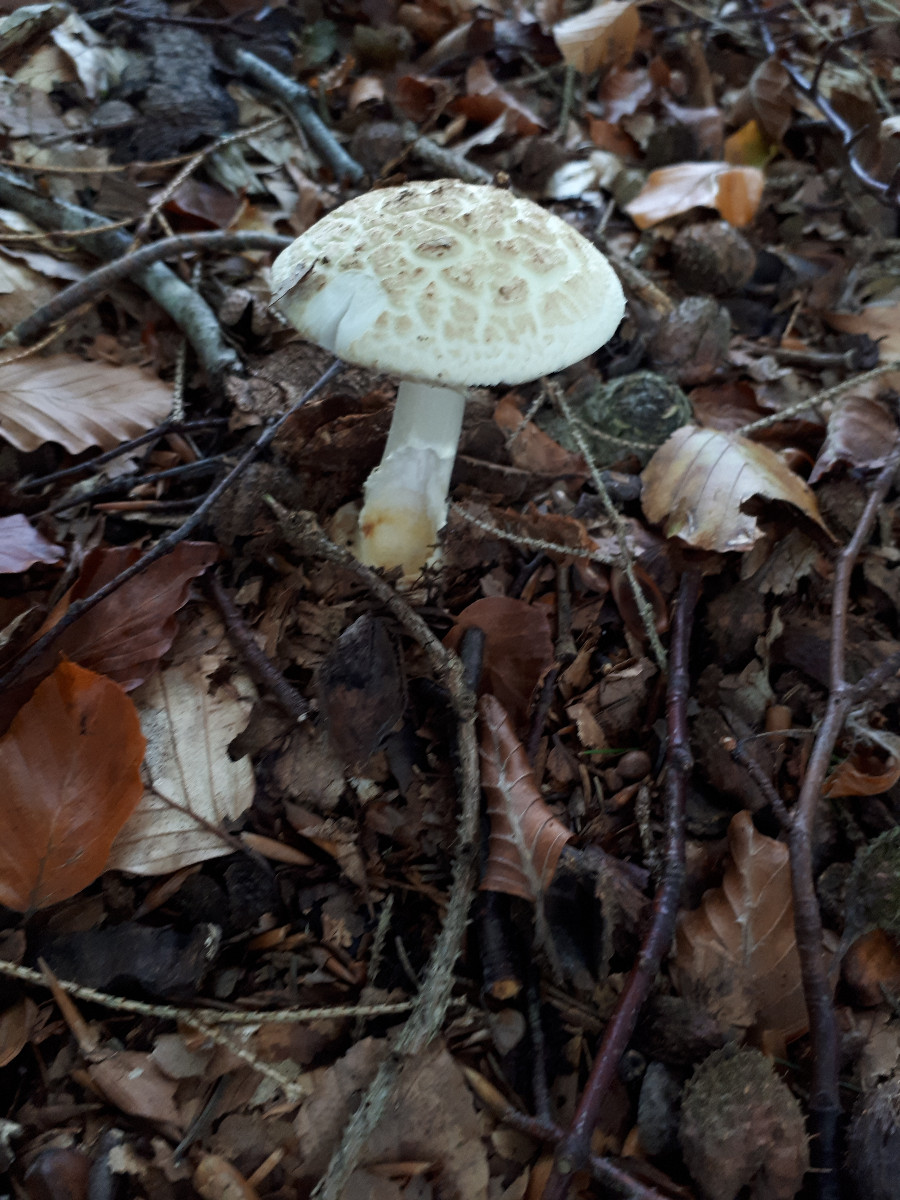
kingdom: Fungi
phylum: Basidiomycota
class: Agaricomycetes
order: Agaricales
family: Amanitaceae
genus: Amanita
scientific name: Amanita citrina
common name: kugleknoldet fluesvamp
